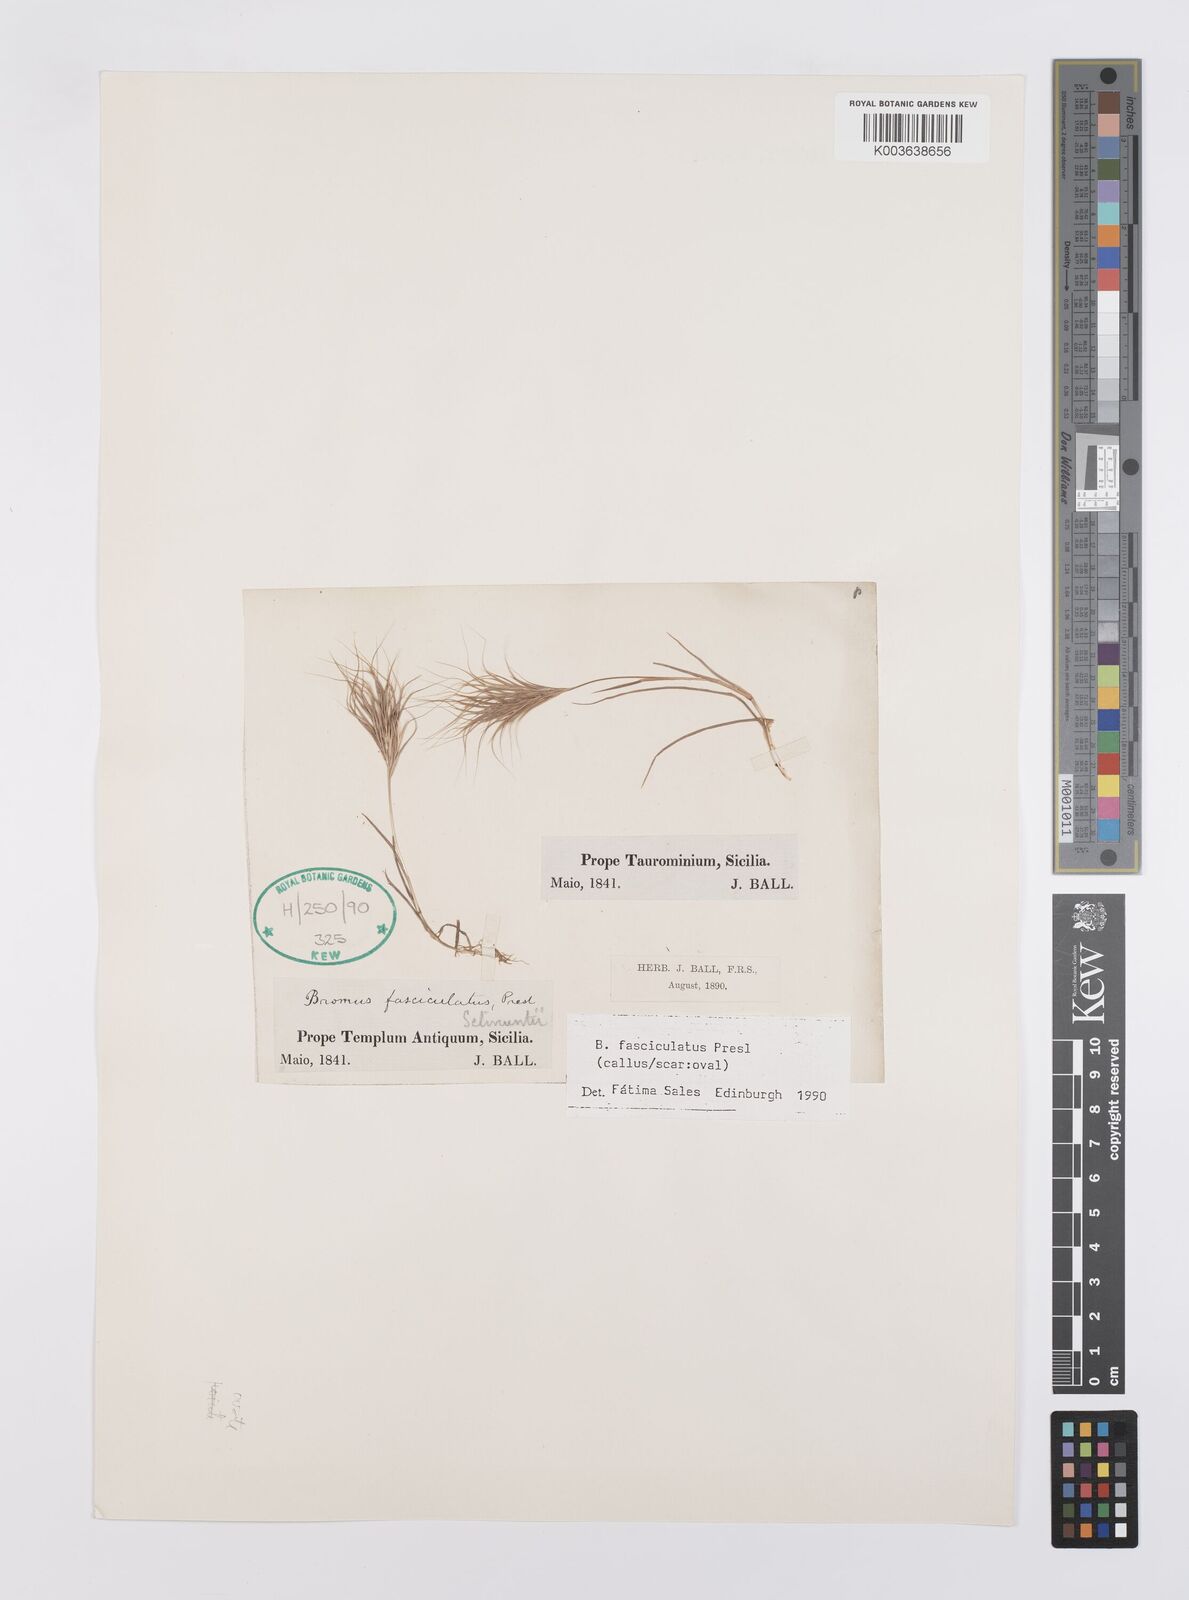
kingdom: Plantae
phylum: Tracheophyta
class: Liliopsida
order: Poales
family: Poaceae
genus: Bromus
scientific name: Bromus fasciculatus
